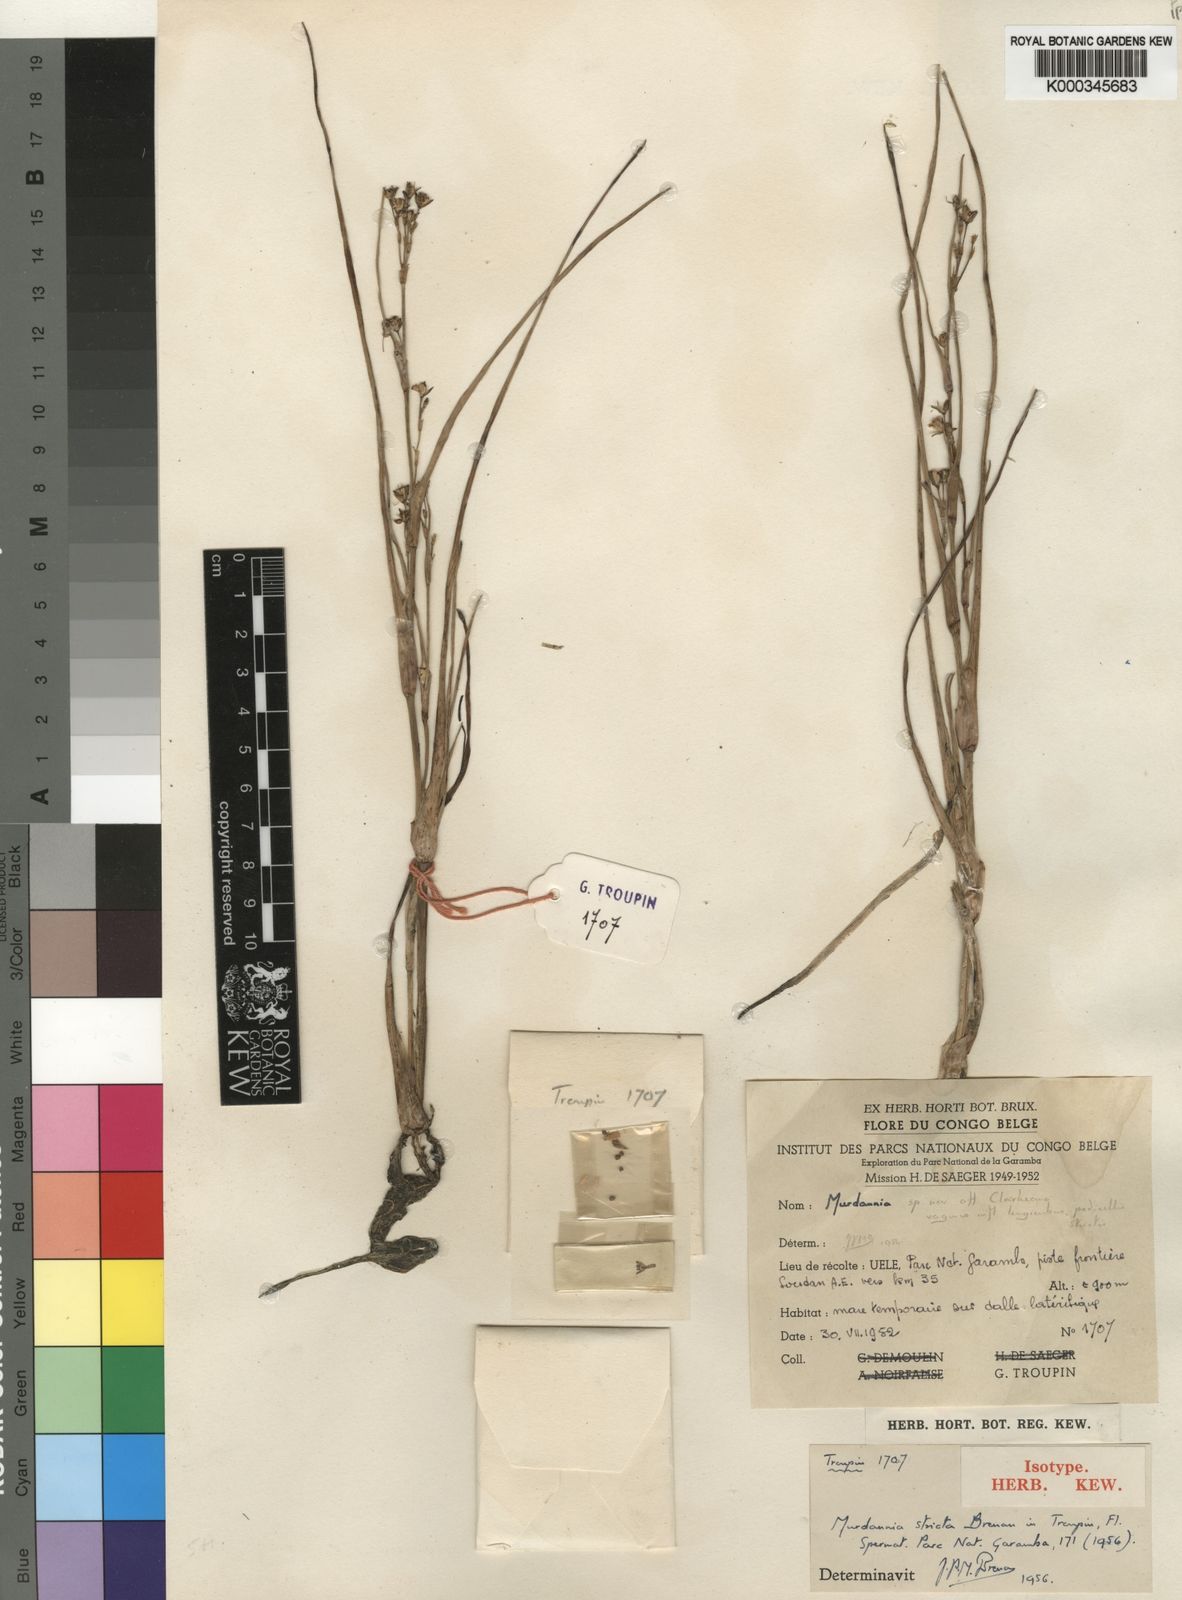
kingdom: Plantae
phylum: Tracheophyta
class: Liliopsida
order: Commelinales
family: Commelinaceae
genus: Murdannia
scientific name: Murdannia stricta
